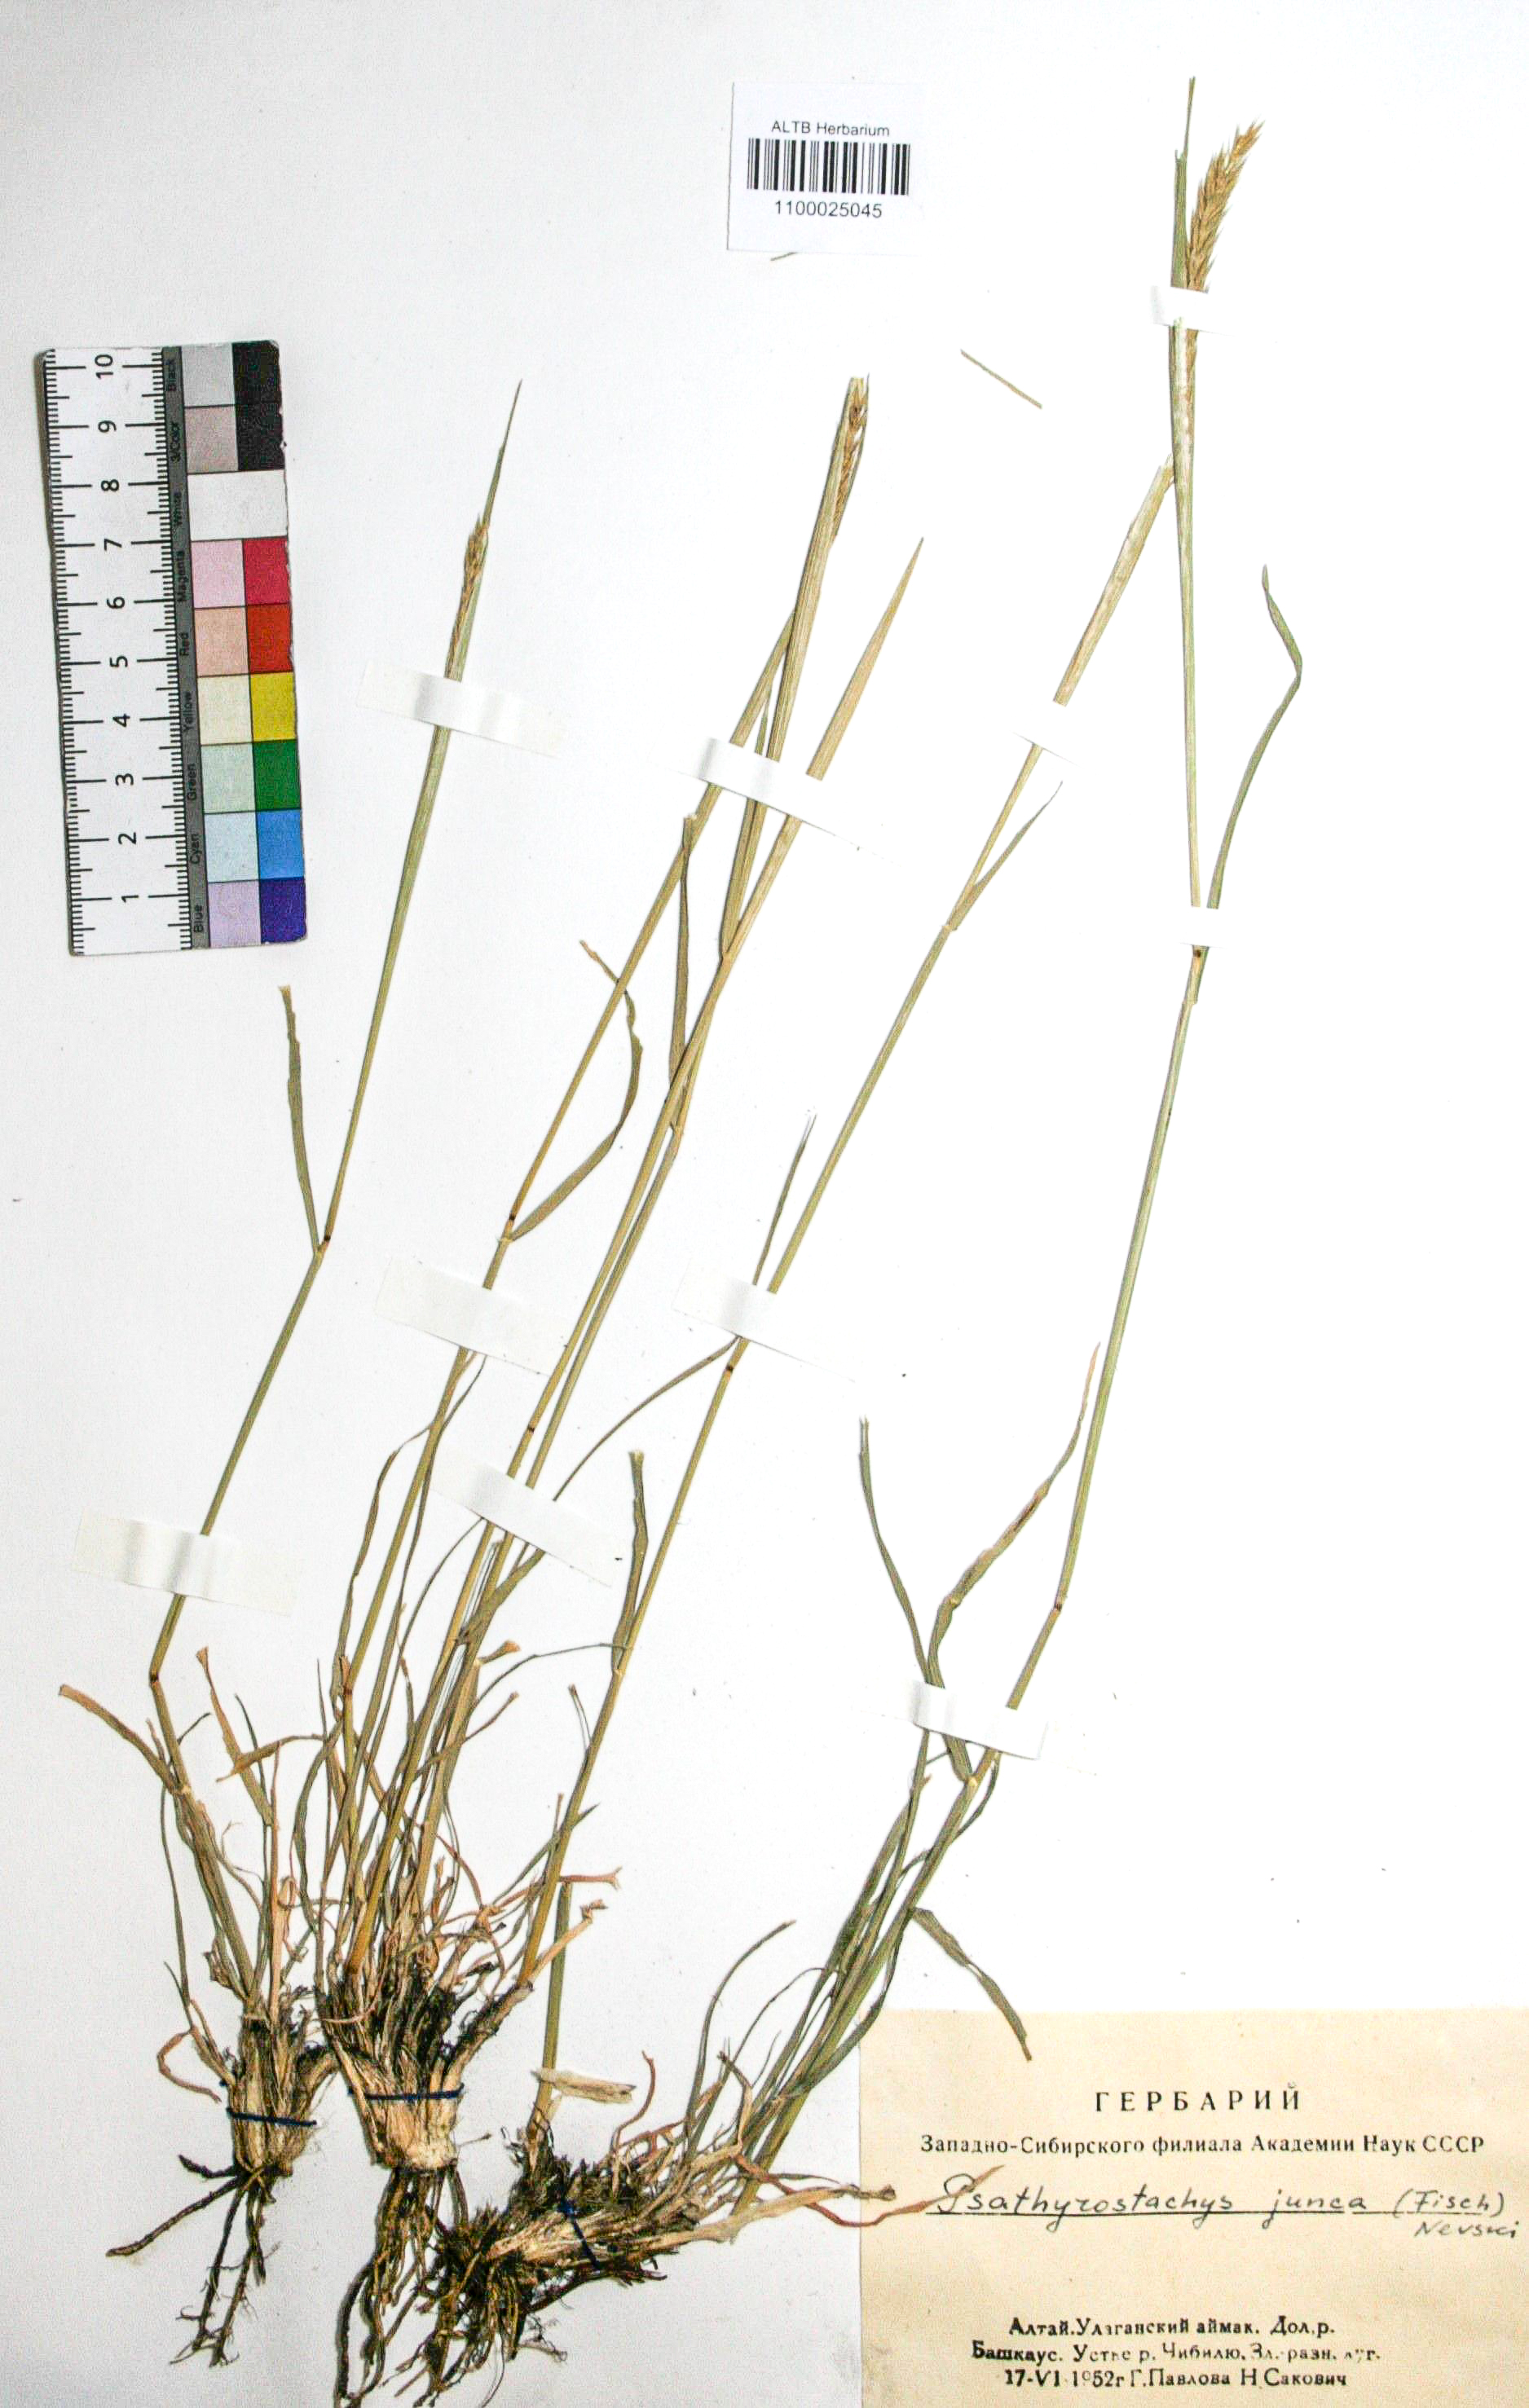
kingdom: Plantae
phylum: Tracheophyta
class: Liliopsida
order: Poales
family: Poaceae
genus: Psathyrostachys
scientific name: Psathyrostachys juncea
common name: Russian wildrye
